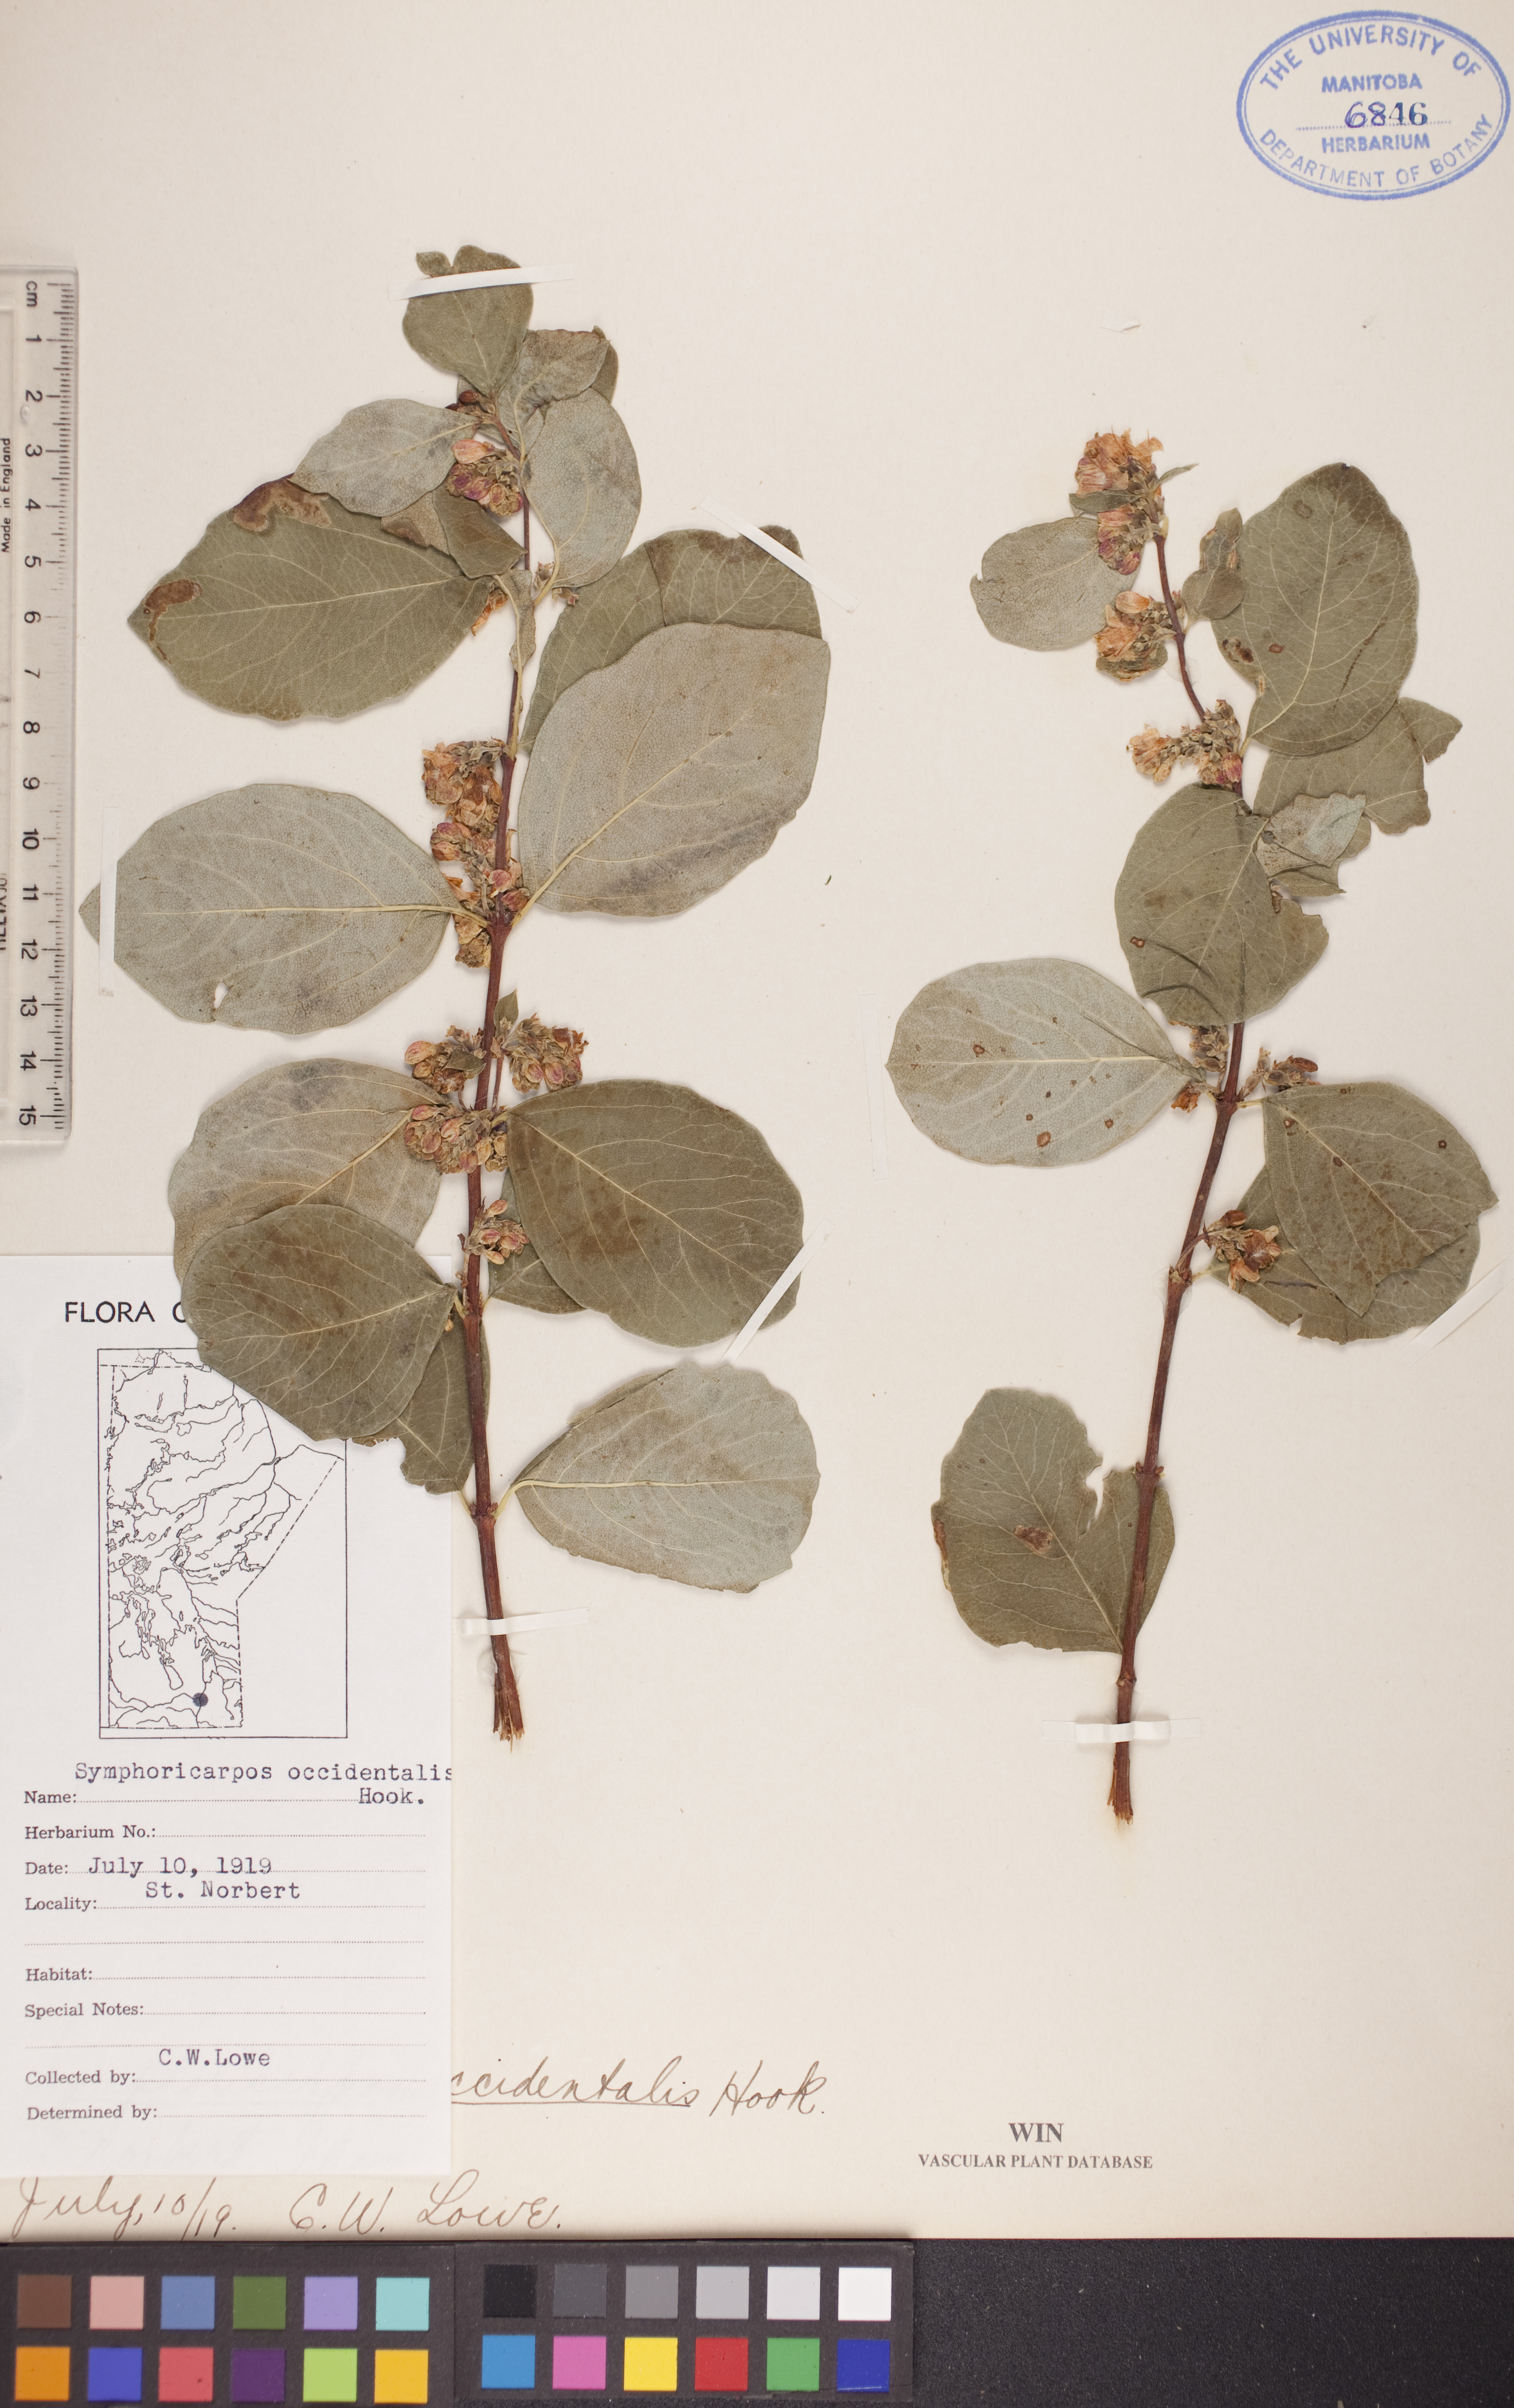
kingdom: Plantae
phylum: Tracheophyta
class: Magnoliopsida
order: Dipsacales
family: Caprifoliaceae
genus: Symphoricarpos
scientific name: Symphoricarpos occidentalis
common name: Wolfberry
